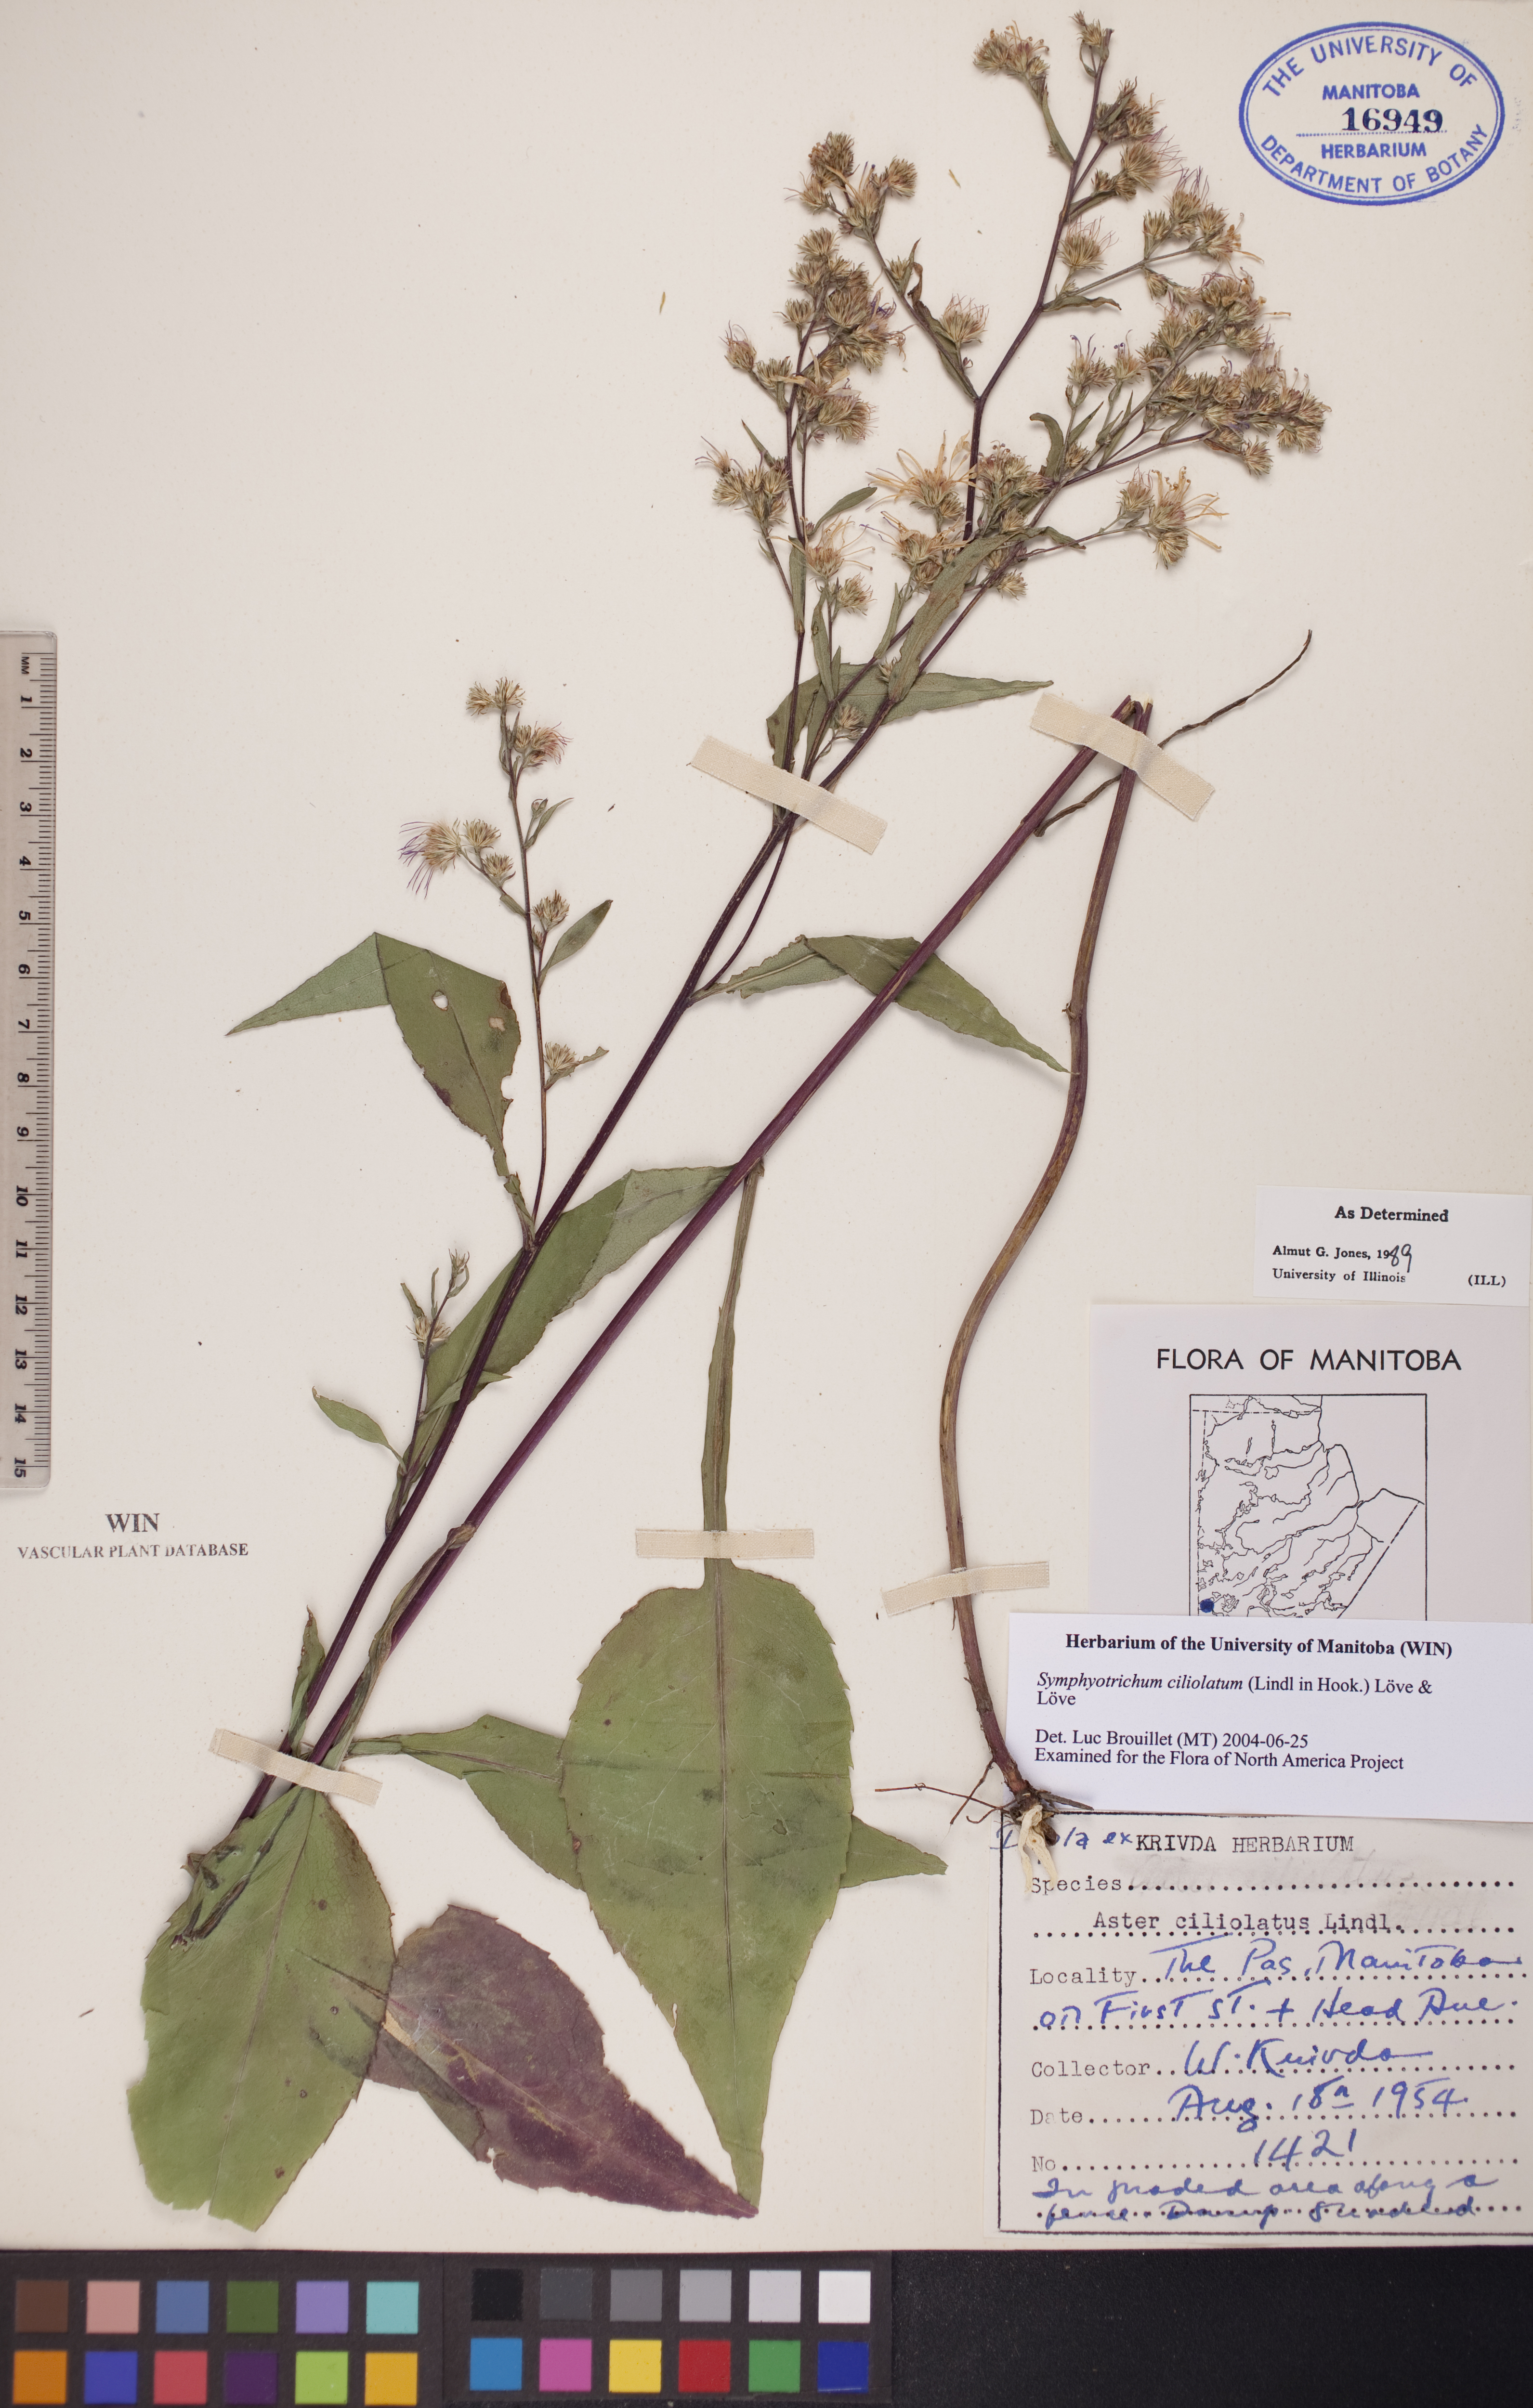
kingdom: Plantae
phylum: Tracheophyta
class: Magnoliopsida
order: Asterales
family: Asteraceae
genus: Symphyotrichum
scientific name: Symphyotrichum ciliolatum
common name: Fringed blue aster
